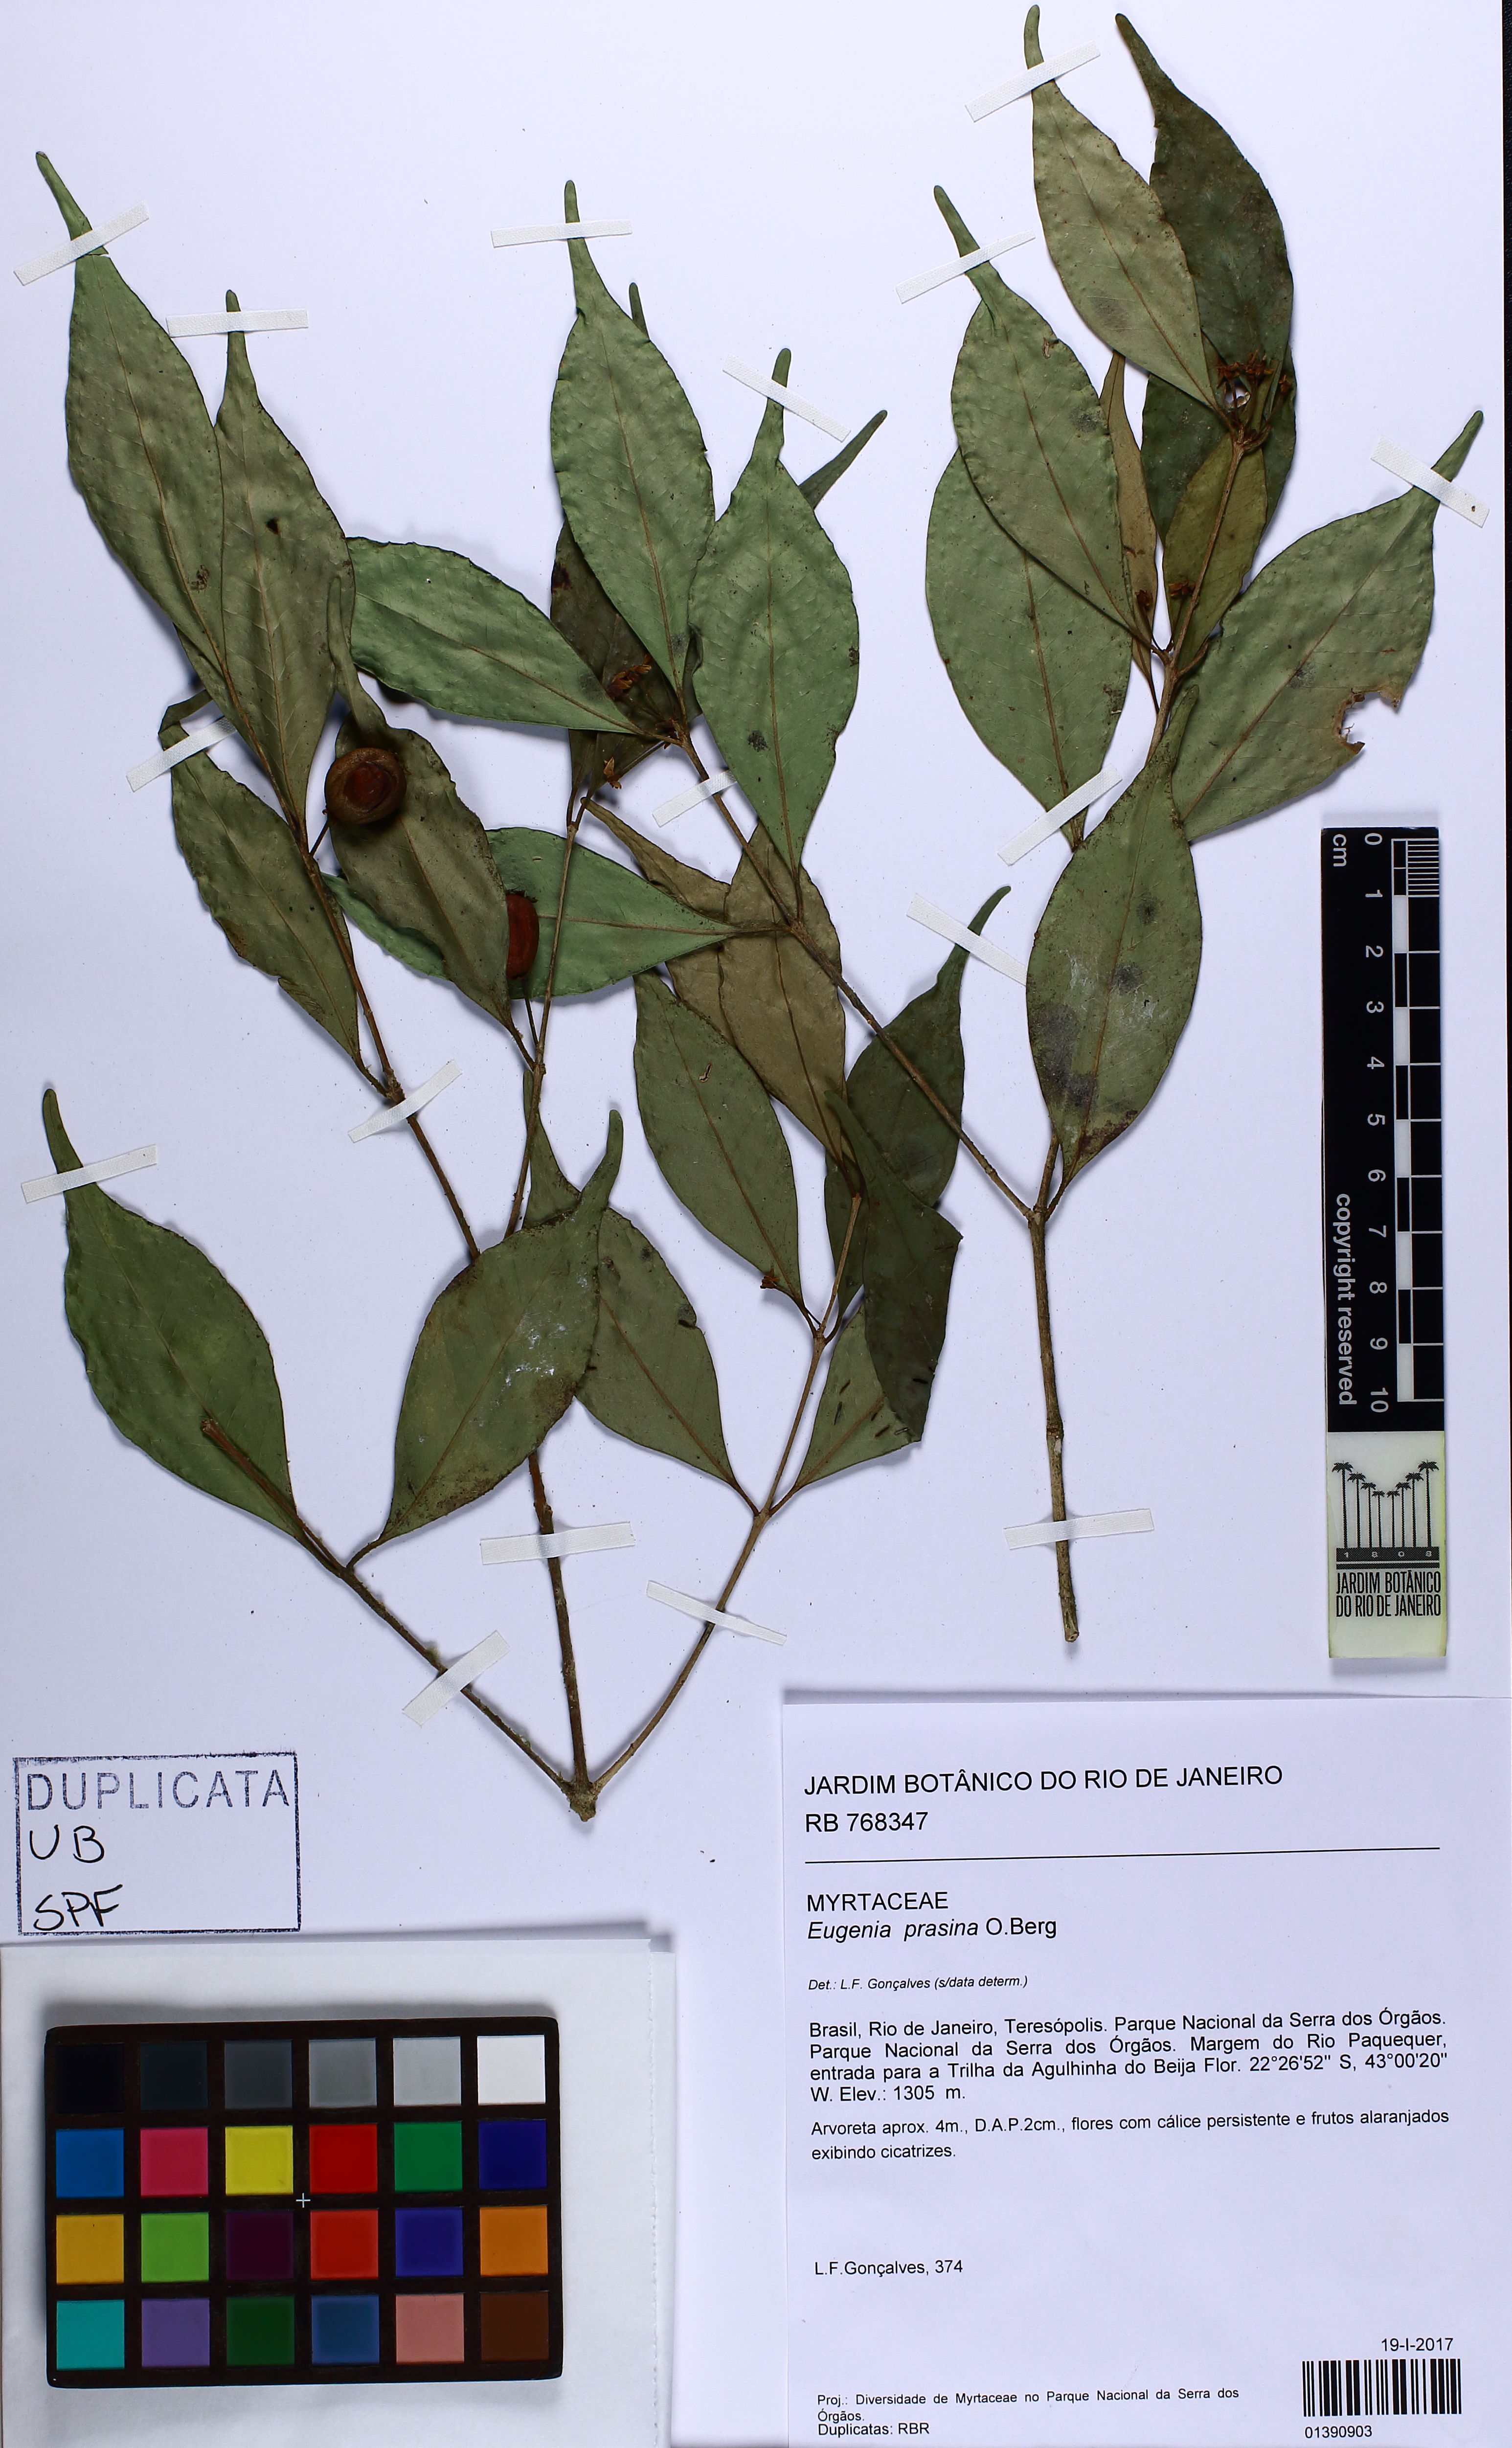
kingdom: Plantae
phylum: Tracheophyta
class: Magnoliopsida
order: Myrtales
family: Myrtaceae
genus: Eugenia
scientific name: Eugenia prasina
